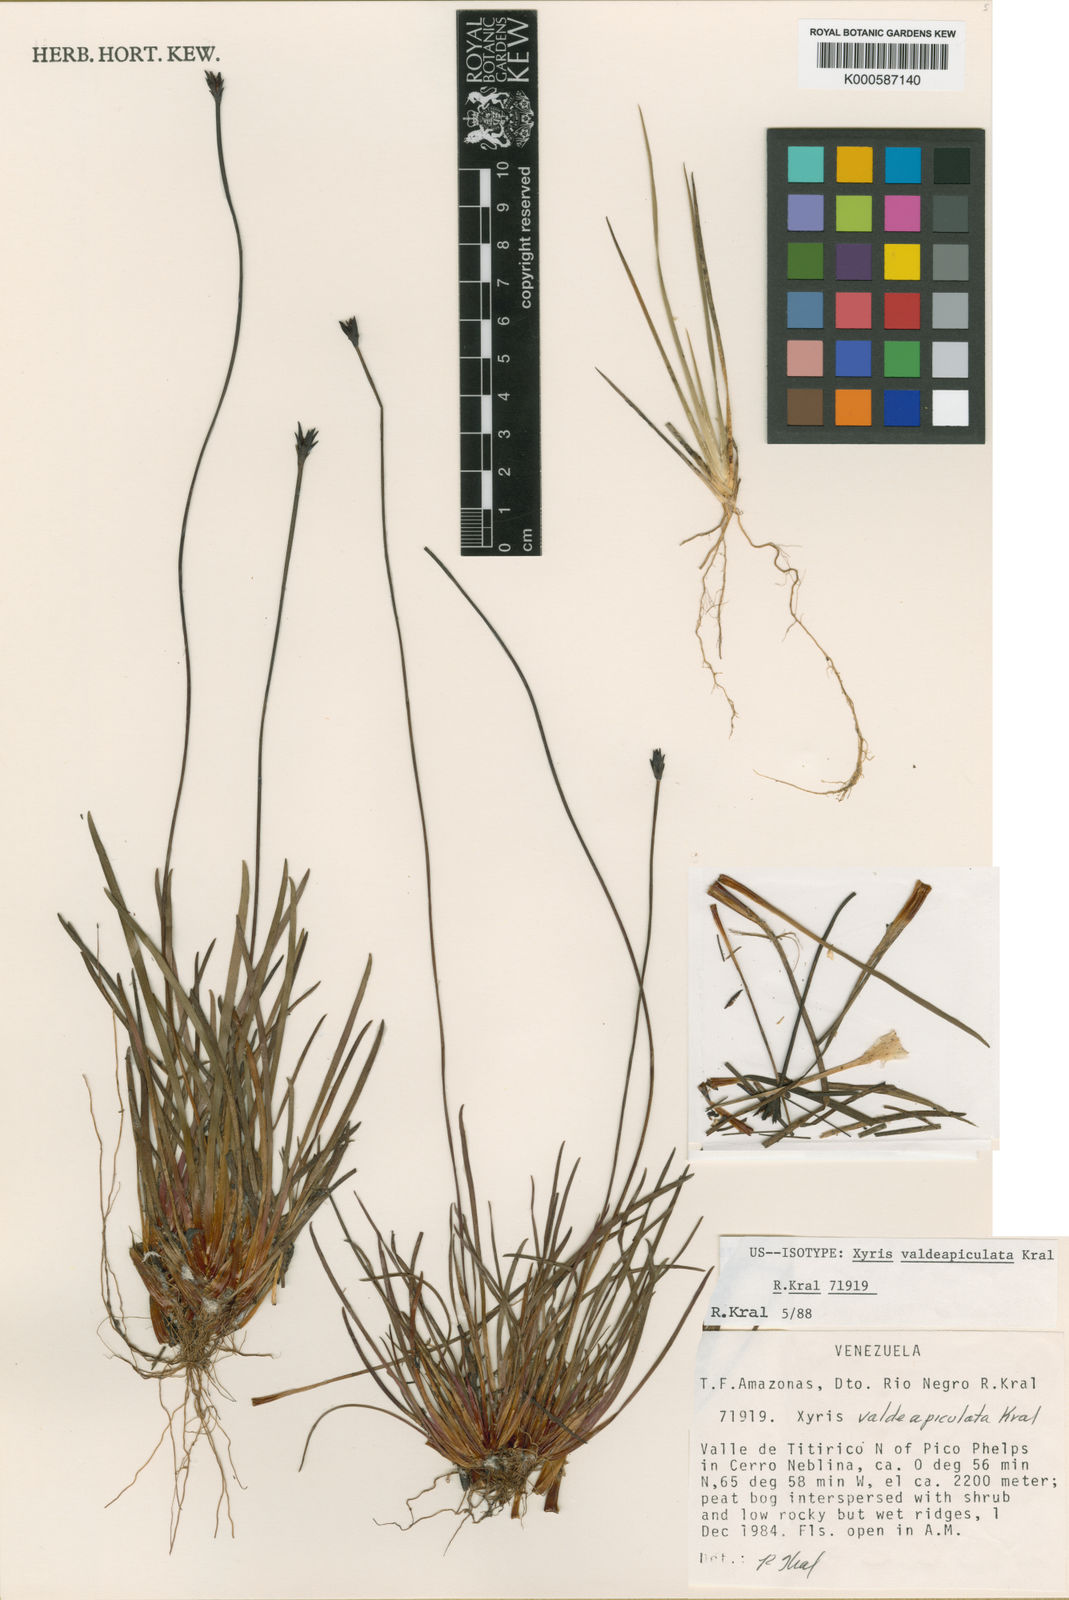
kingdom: Plantae
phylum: Tracheophyta
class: Liliopsida
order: Poales
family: Xyridaceae
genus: Xyris
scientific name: Xyris valdeapiculata
